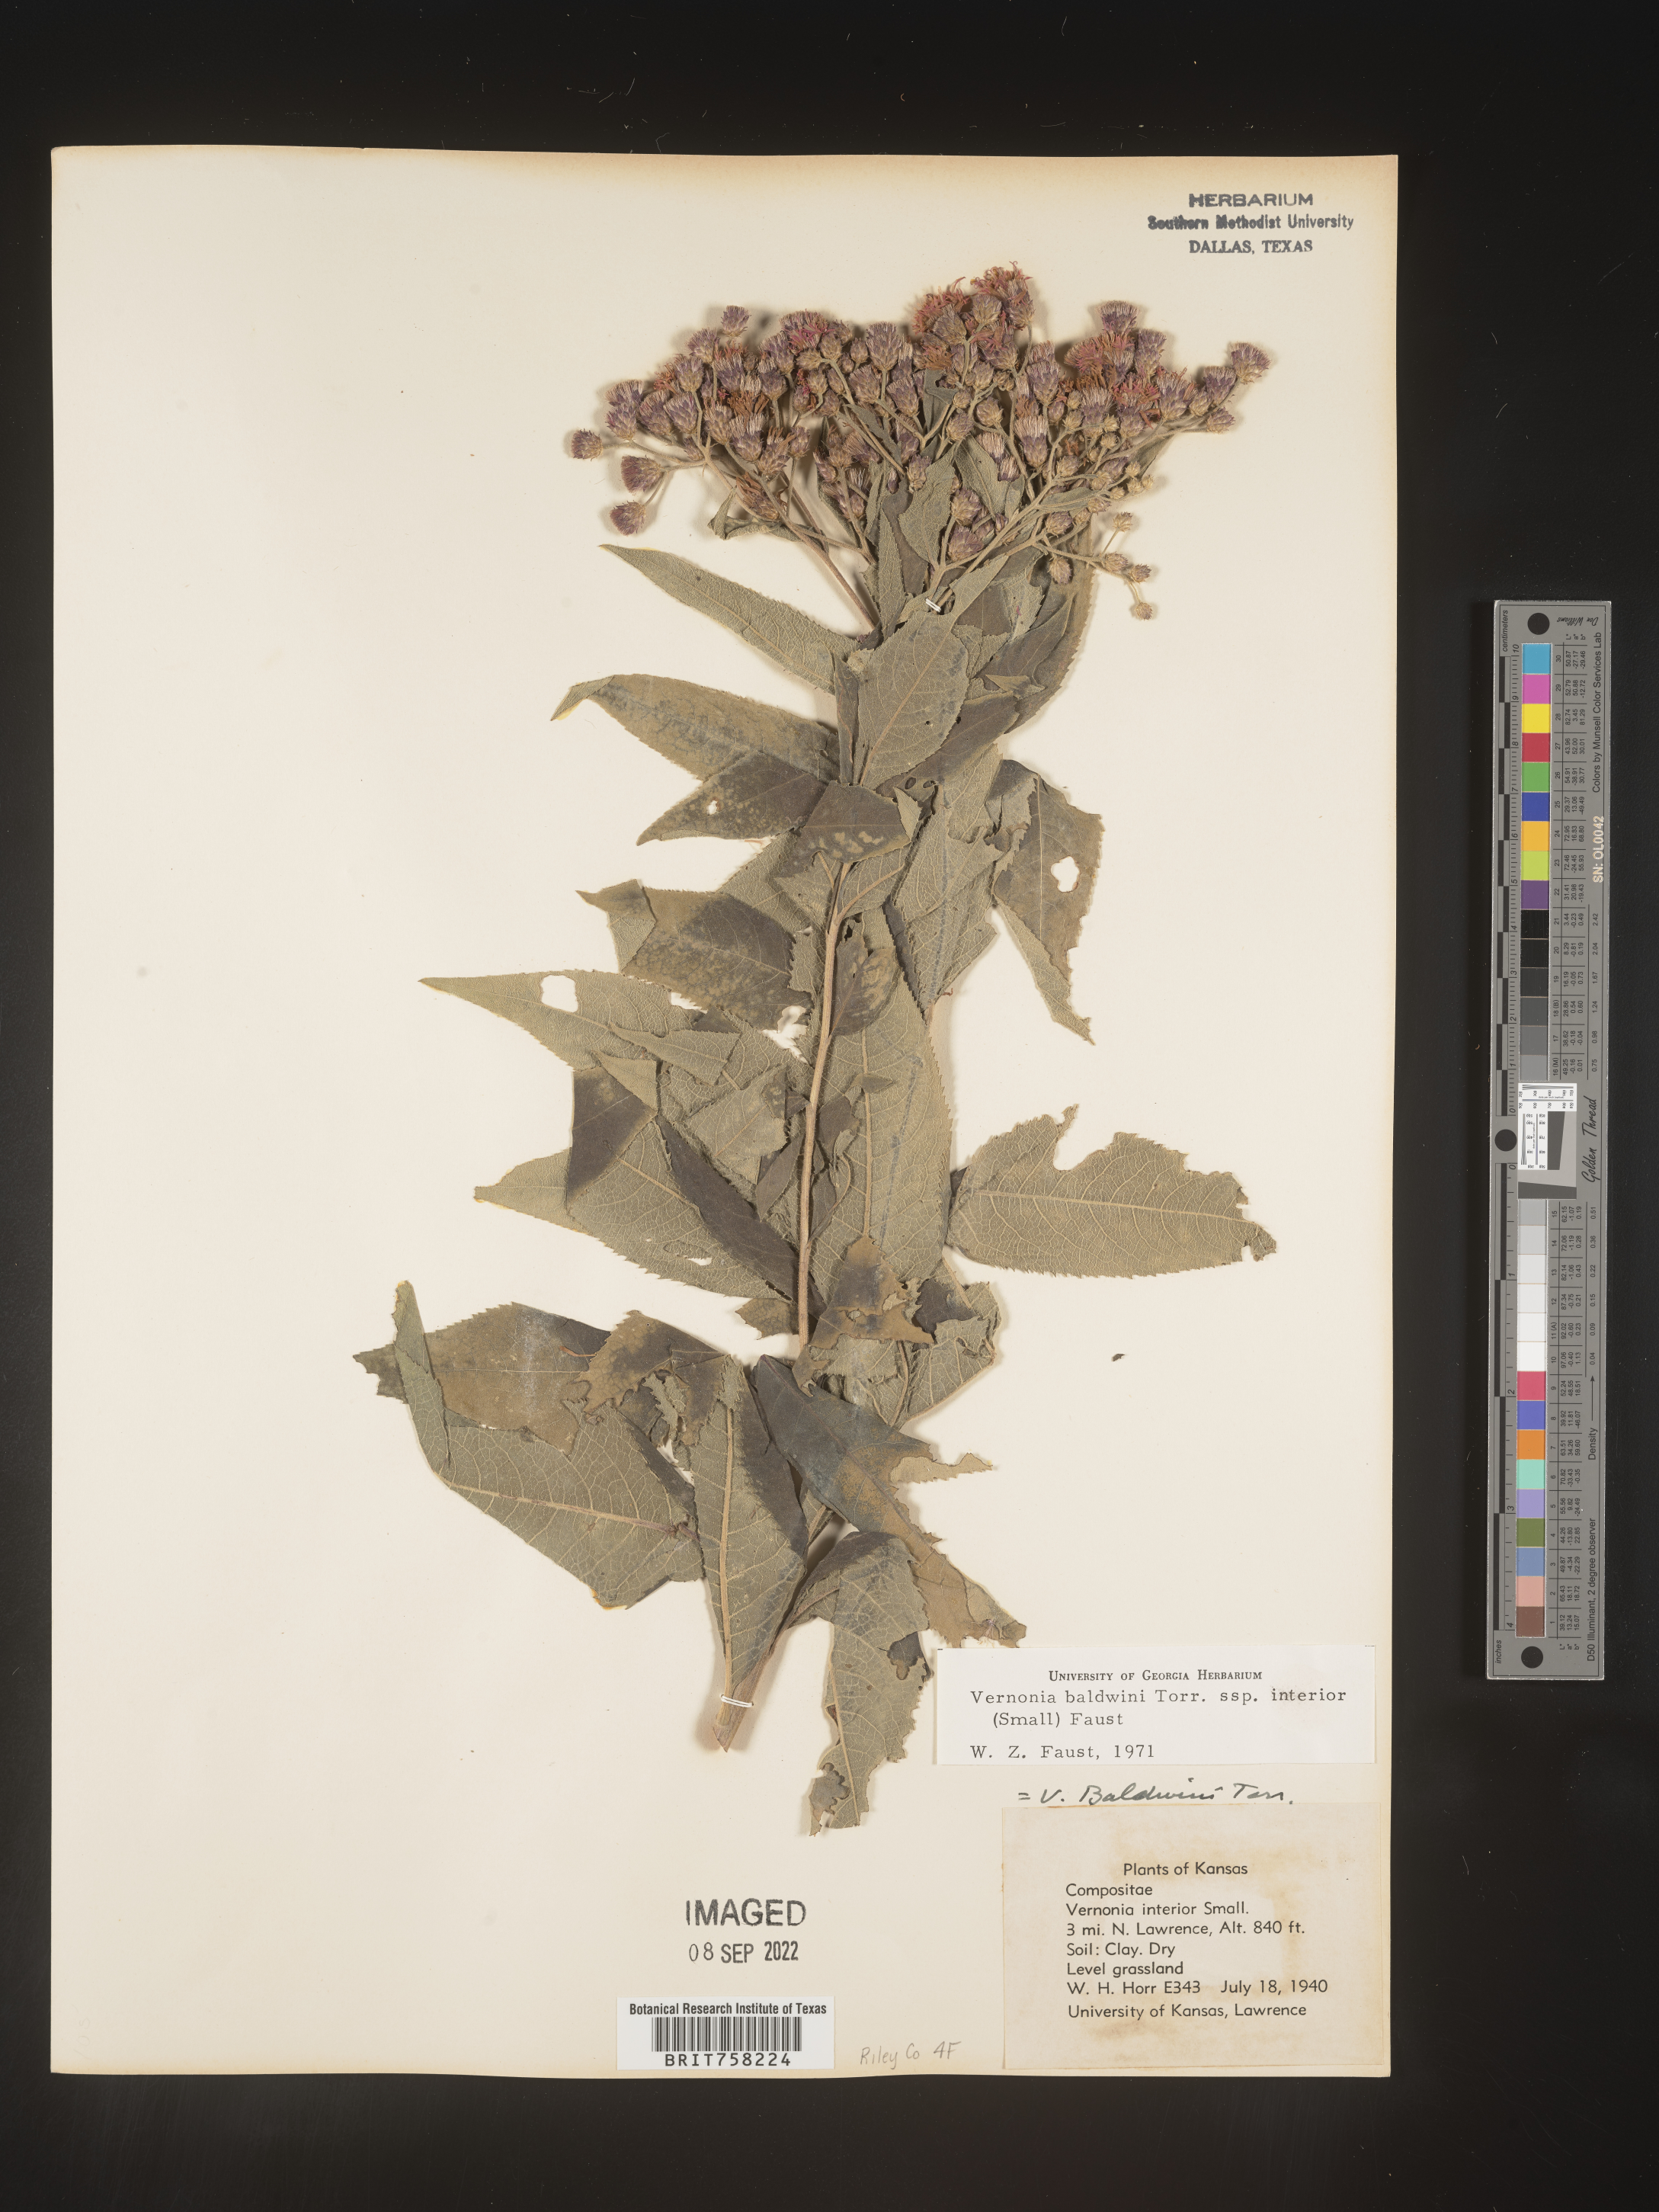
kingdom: Plantae
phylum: Tracheophyta
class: Magnoliopsida
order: Asterales
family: Asteraceae
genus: Vernonia
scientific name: Vernonia baldwinii
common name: Western ironweed
